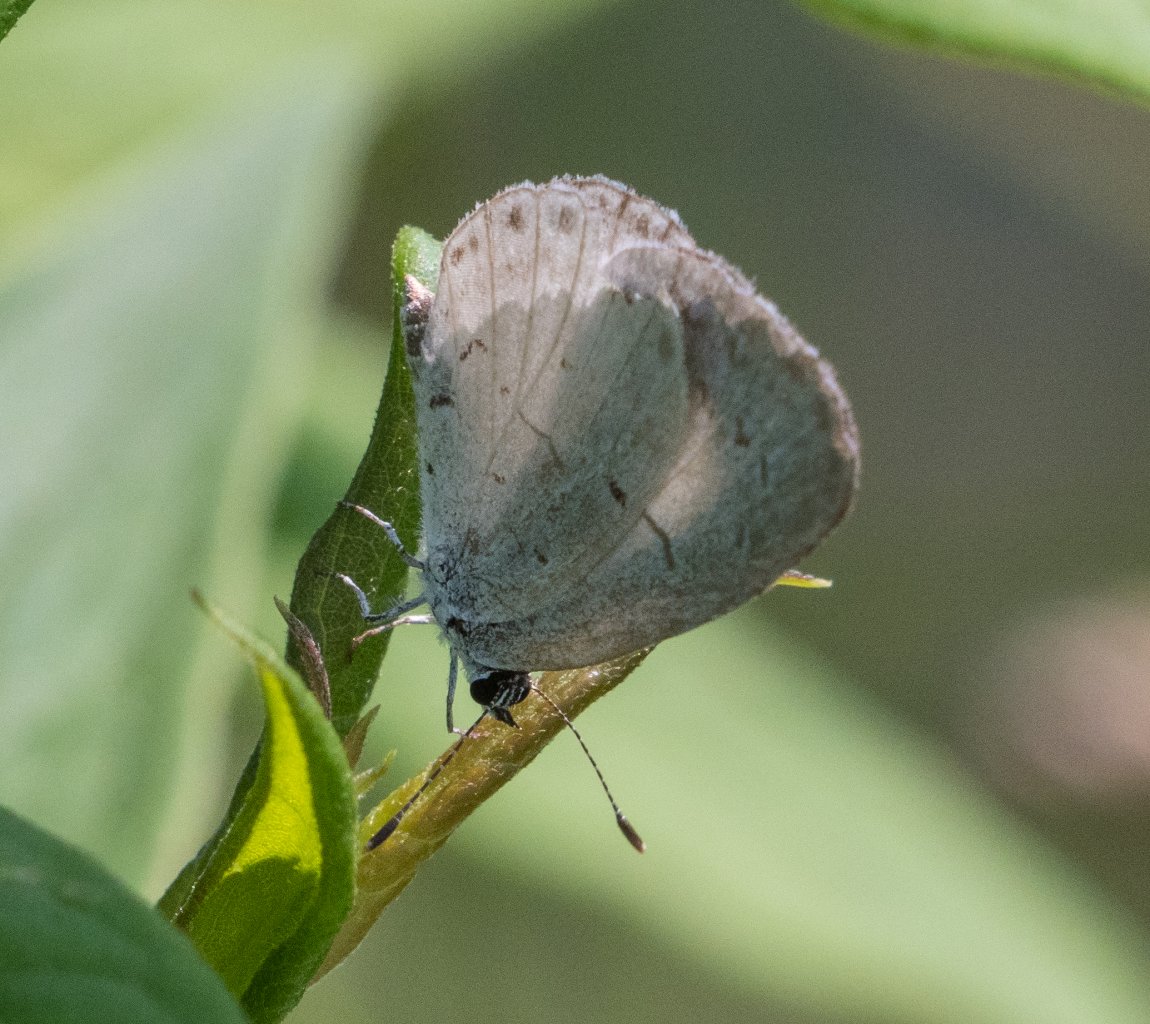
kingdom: Animalia
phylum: Arthropoda
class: Insecta
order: Lepidoptera
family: Lycaenidae
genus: Celastrina
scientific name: Celastrina
